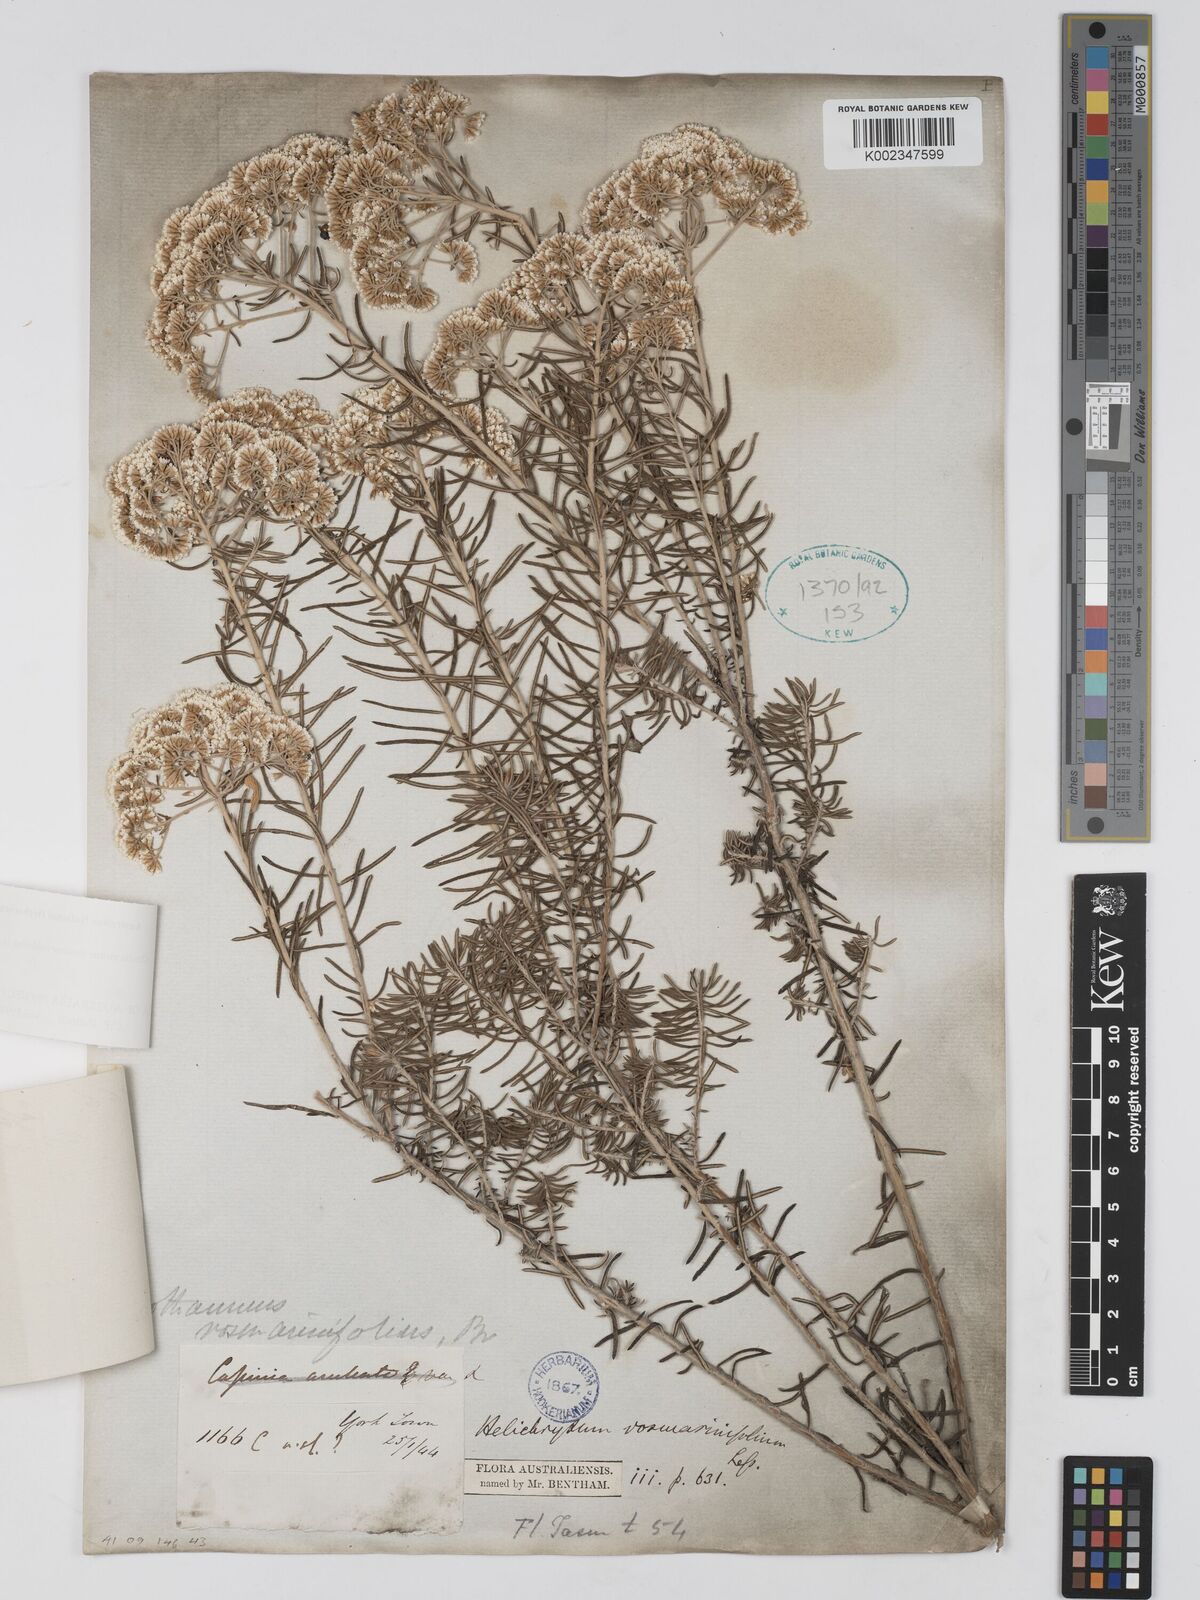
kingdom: Plantae
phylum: Tracheophyta
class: Magnoliopsida
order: Asterales
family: Asteraceae
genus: Ozothamnus
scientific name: Ozothamnus rosmarinifolius
